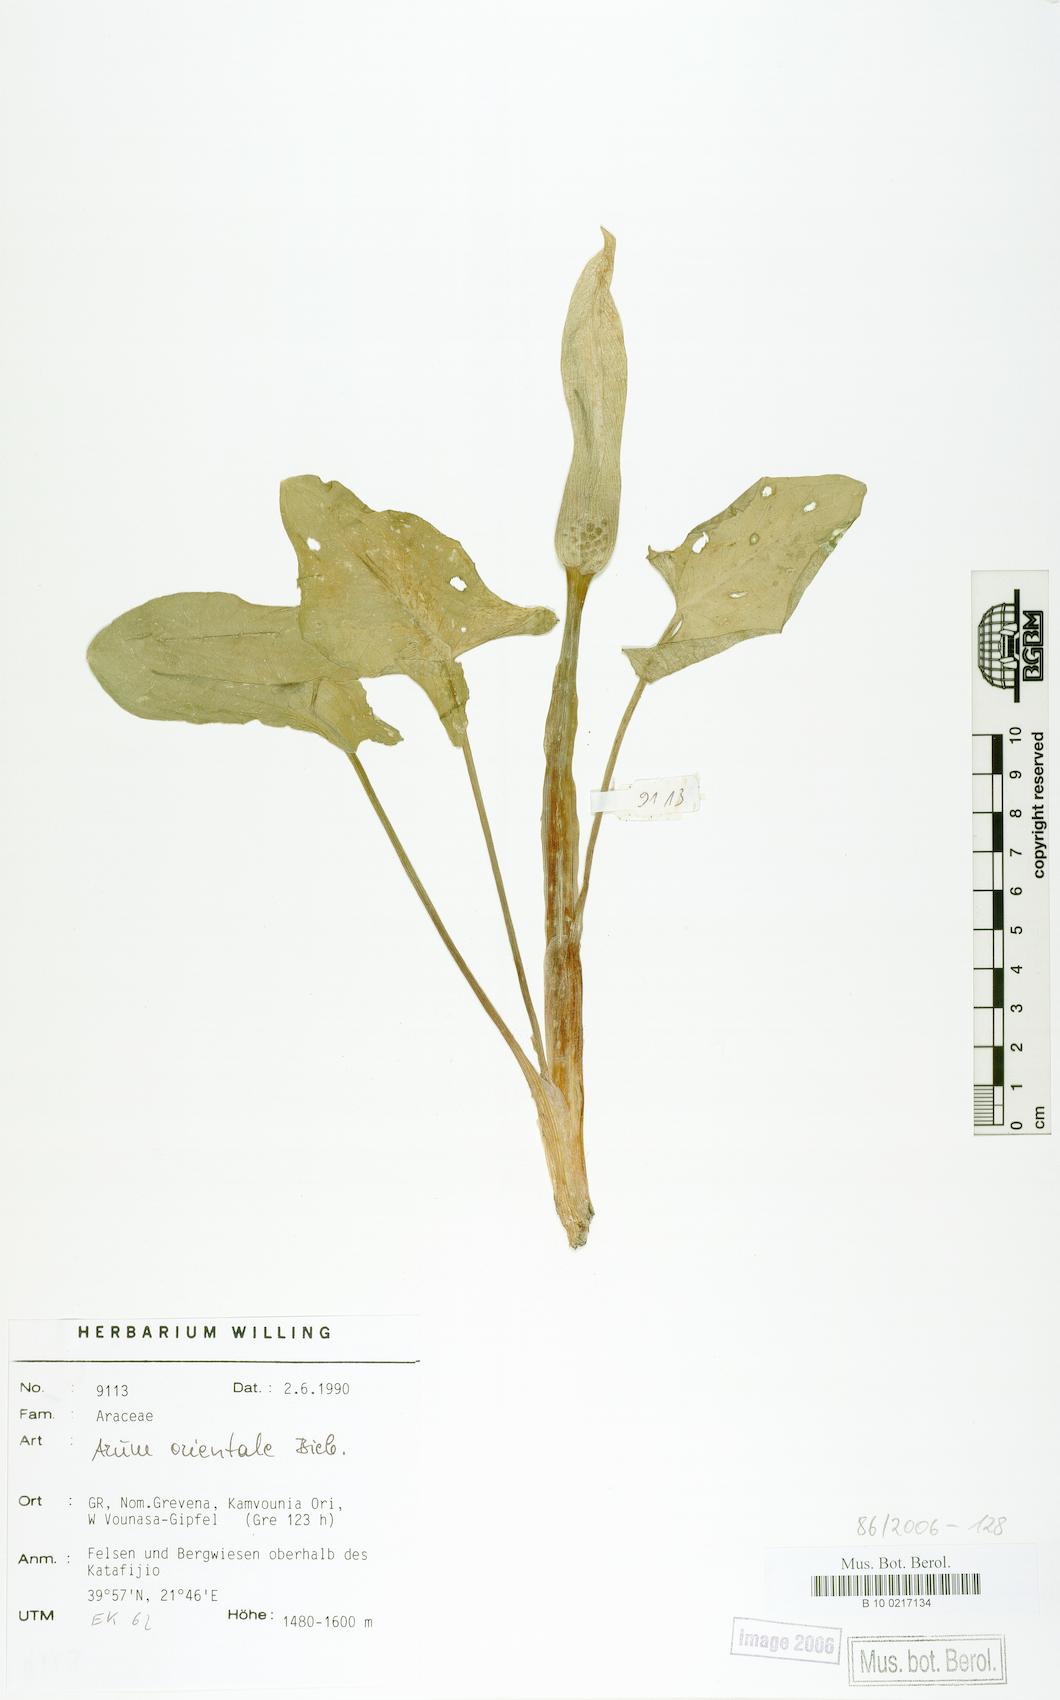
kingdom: Plantae
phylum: Tracheophyta
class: Liliopsida
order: Alismatales
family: Araceae
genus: Arum
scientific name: Arum orientale
